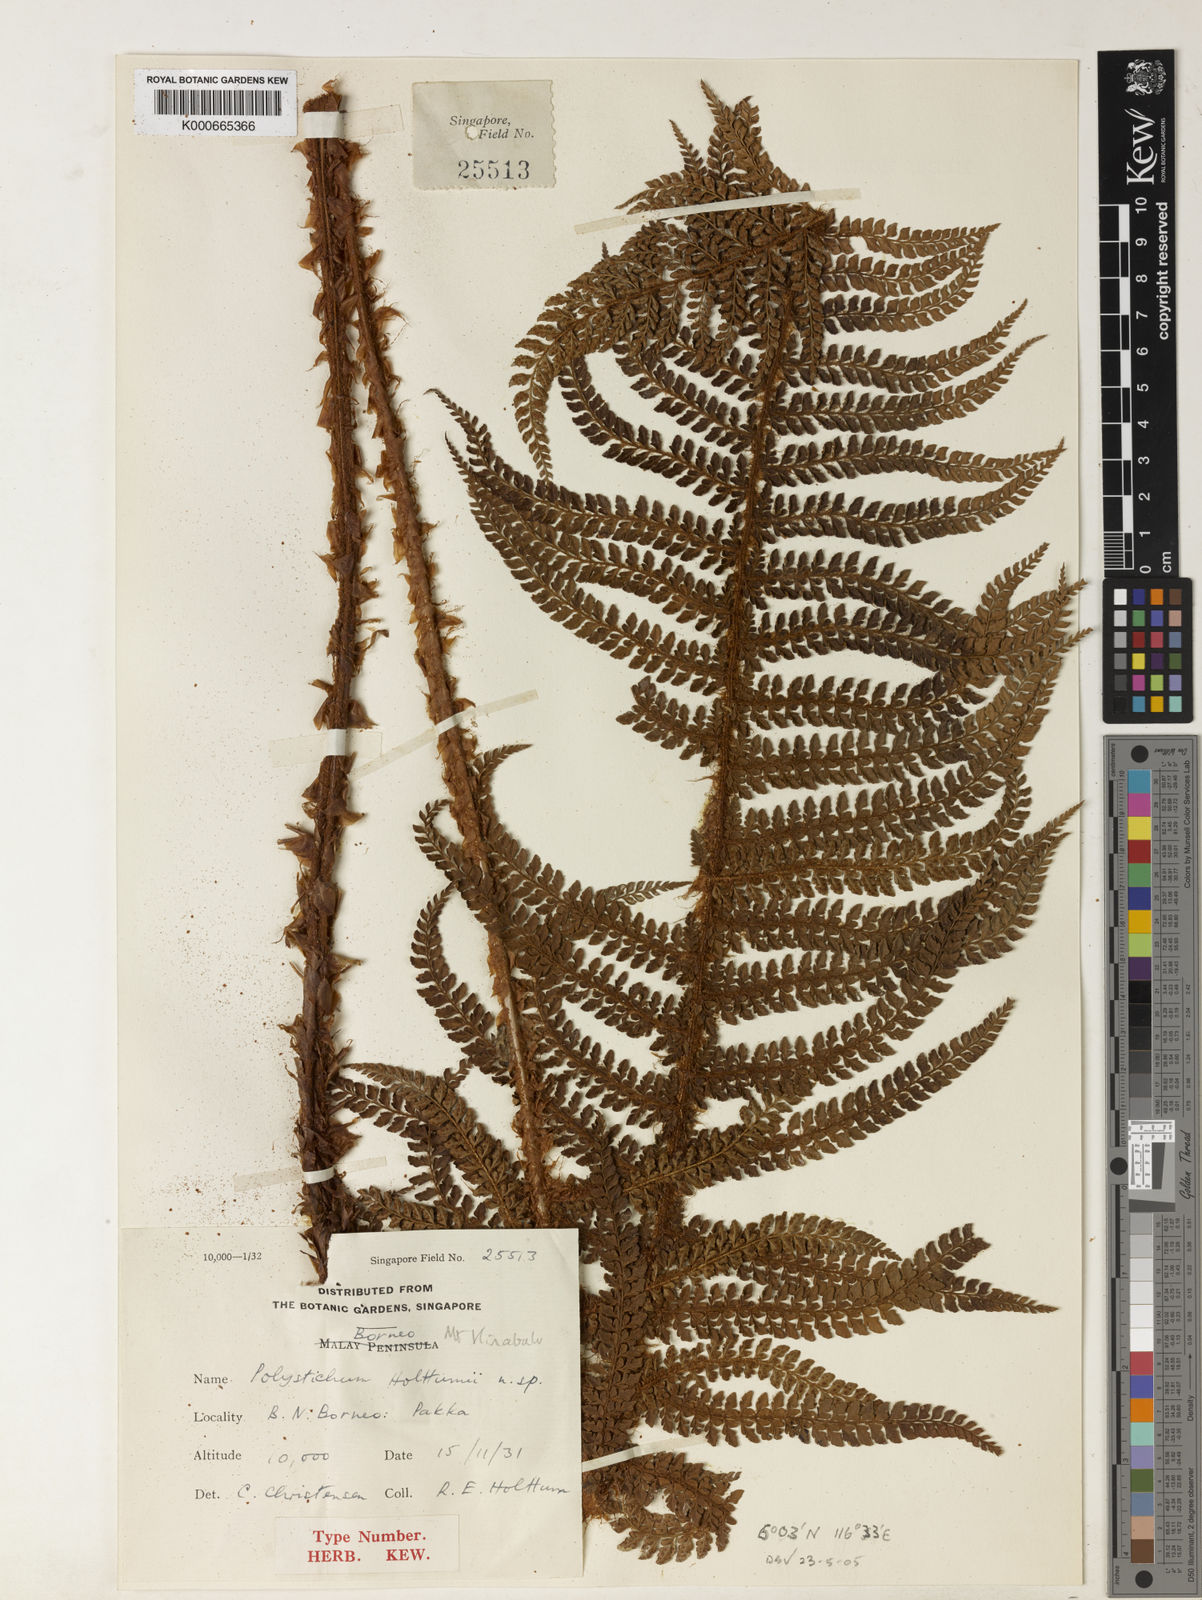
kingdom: Plantae
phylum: Tracheophyta
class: Polypodiopsida
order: Polypodiales
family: Dryopteridaceae
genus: Polystichum
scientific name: Polystichum holttumii
